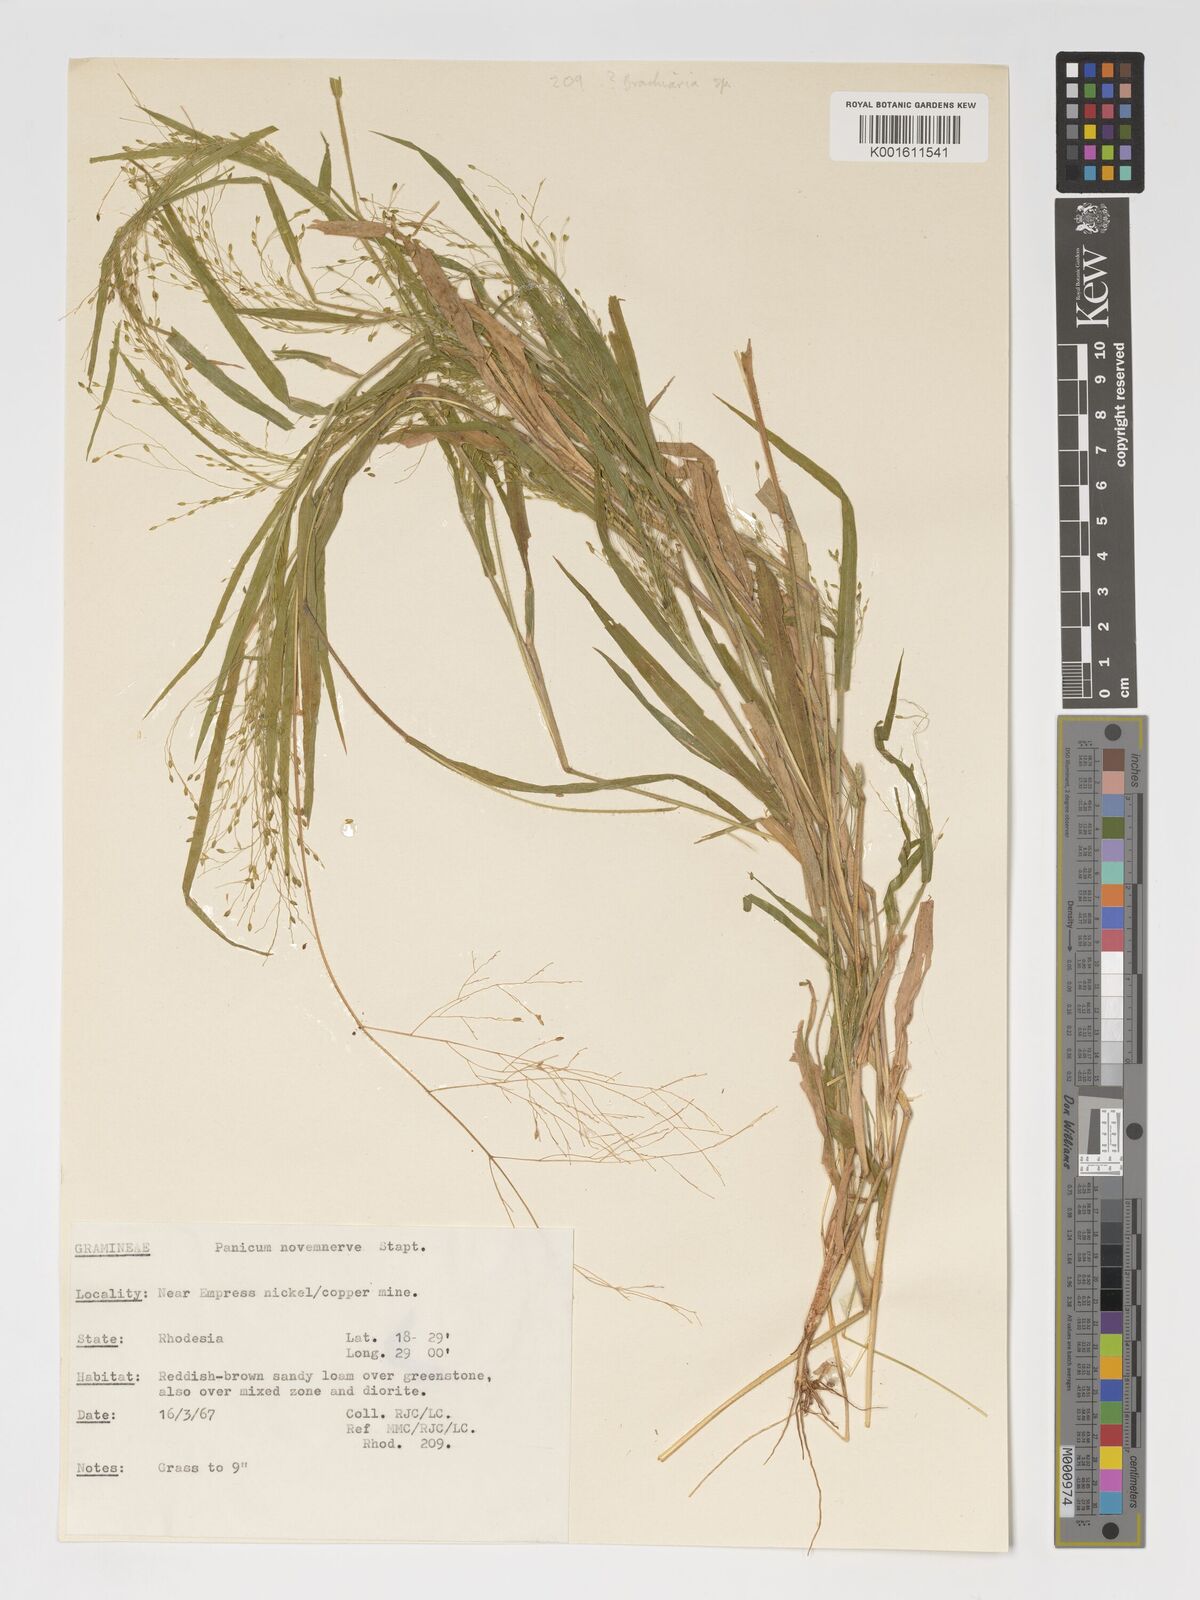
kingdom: Plantae
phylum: Tracheophyta
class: Liliopsida
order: Poales
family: Poaceae
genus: Panicum
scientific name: Panicum novemnerve
